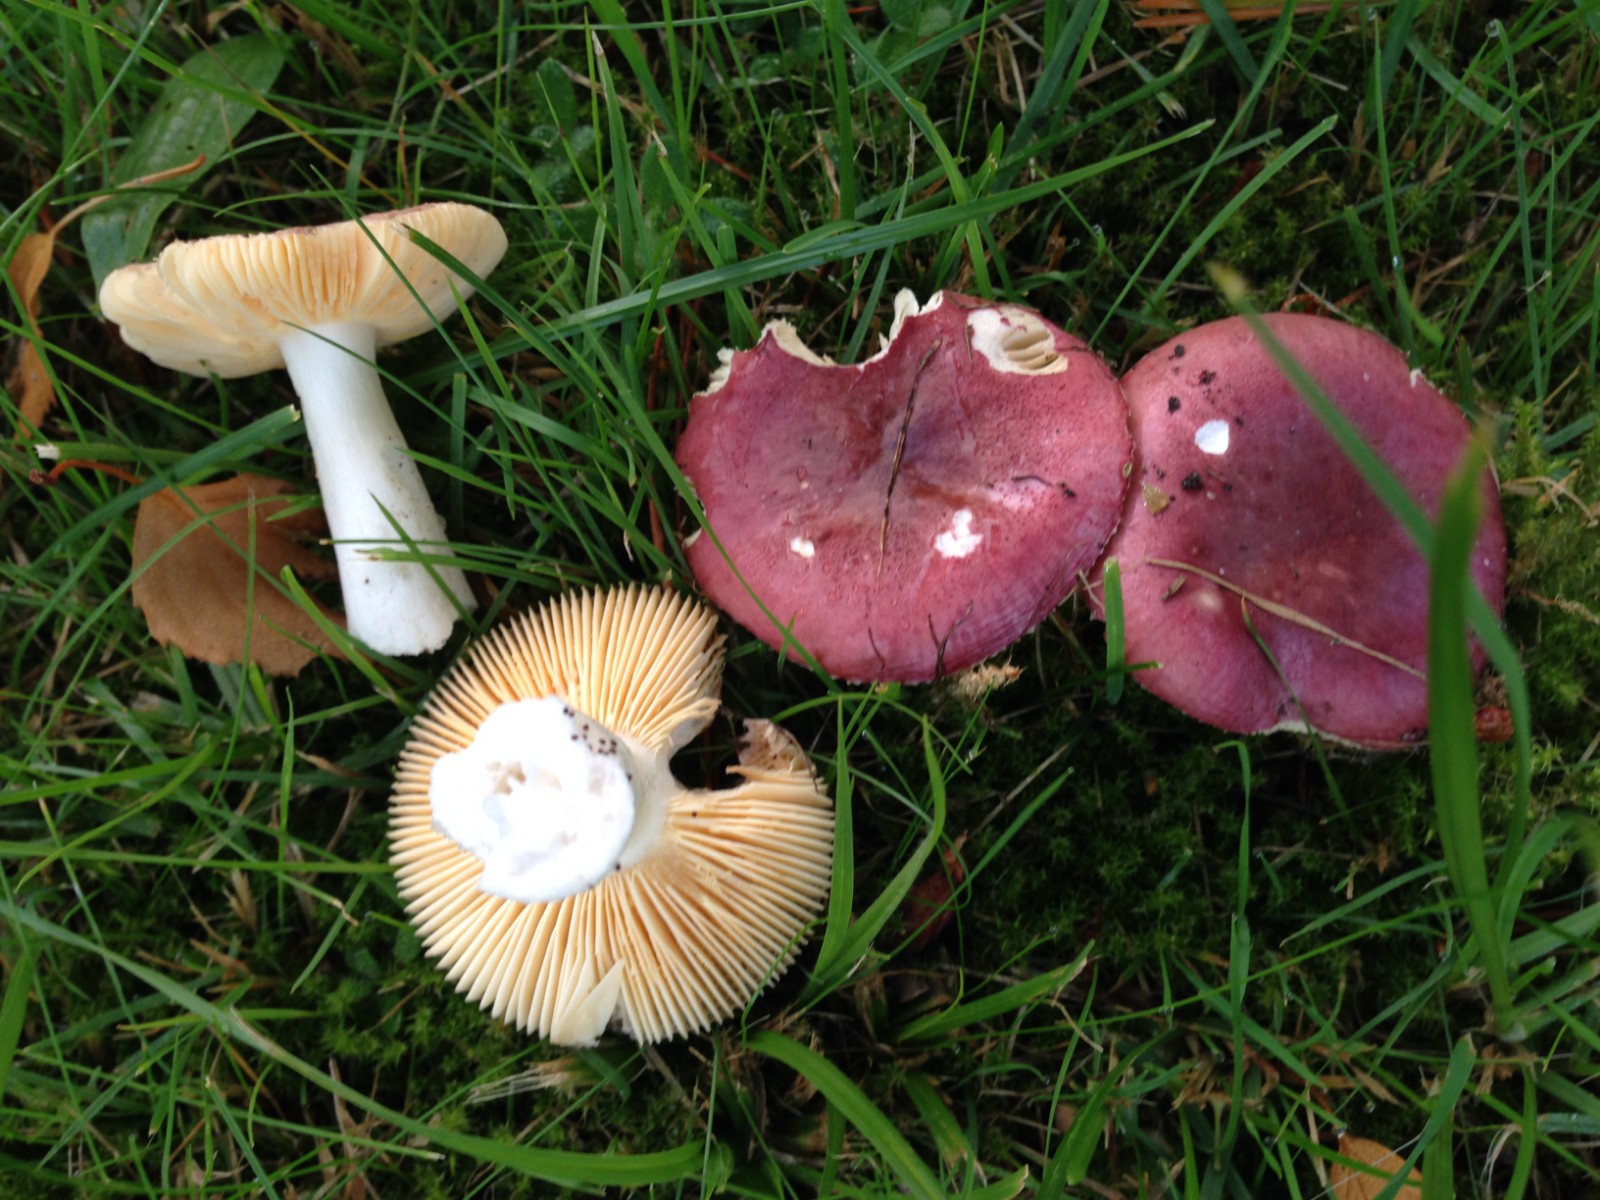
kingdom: Fungi
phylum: Basidiomycota
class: Agaricomycetes
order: Russulales
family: Russulaceae
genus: Russula
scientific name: Russula cessans
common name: fyrre-skørhat
